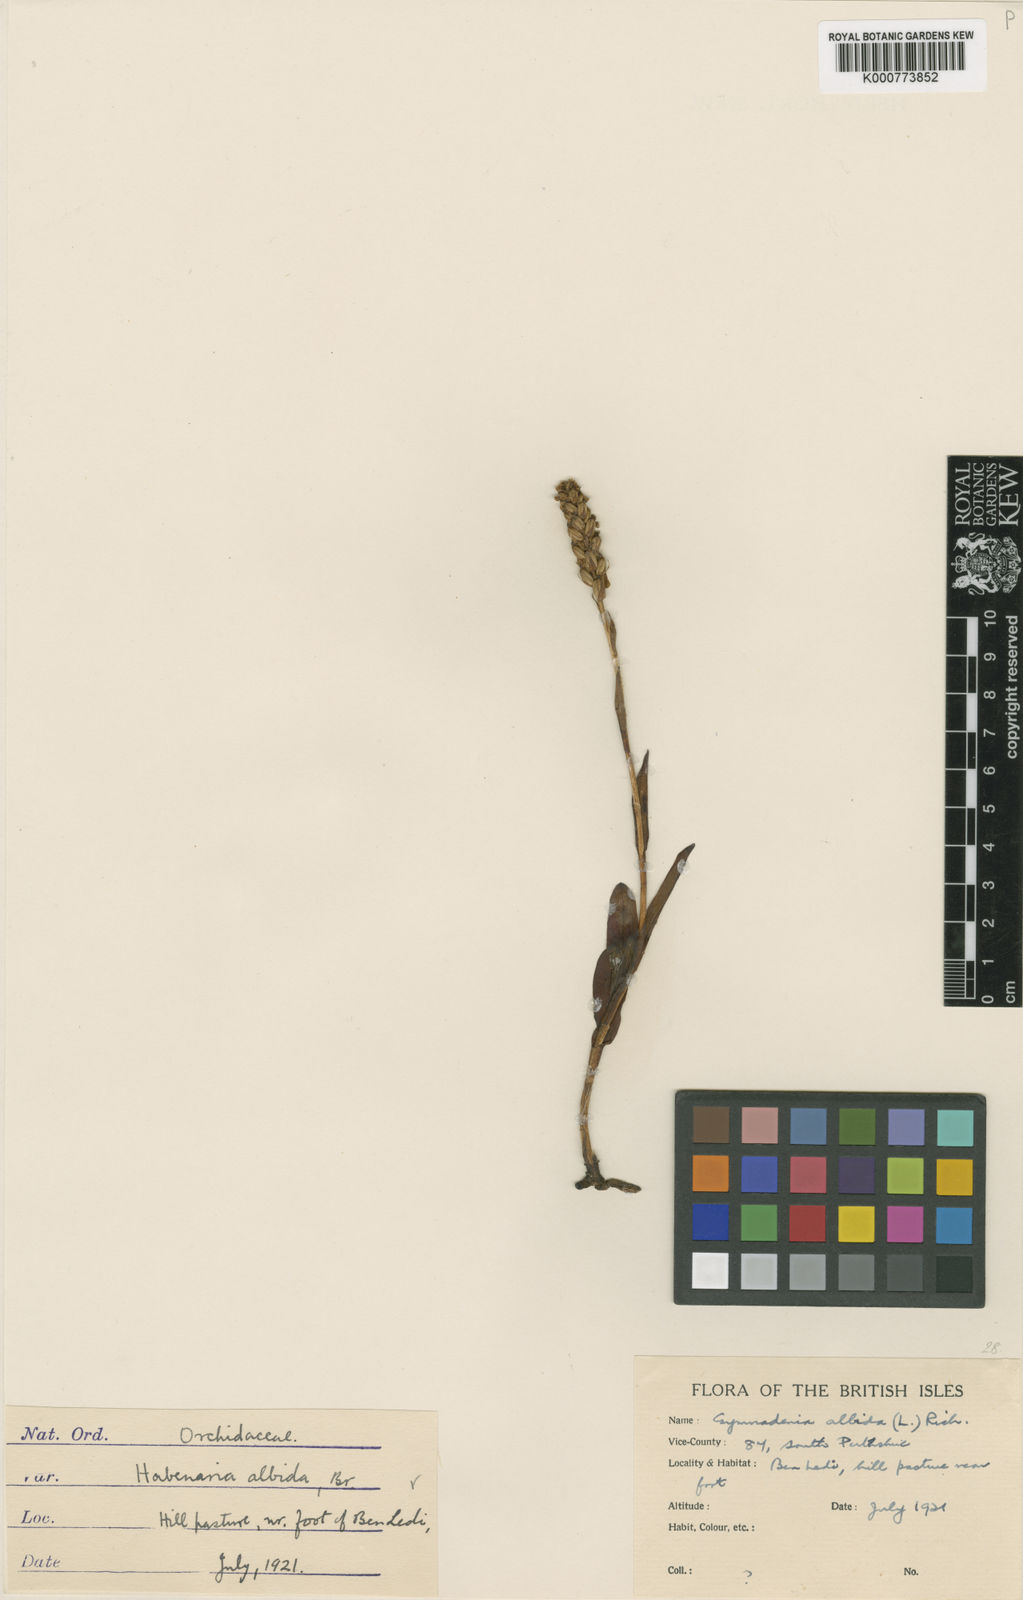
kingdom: Plantae
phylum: Tracheophyta
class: Liliopsida
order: Asparagales
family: Orchidaceae
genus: Pseudorchis
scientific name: Pseudorchis
